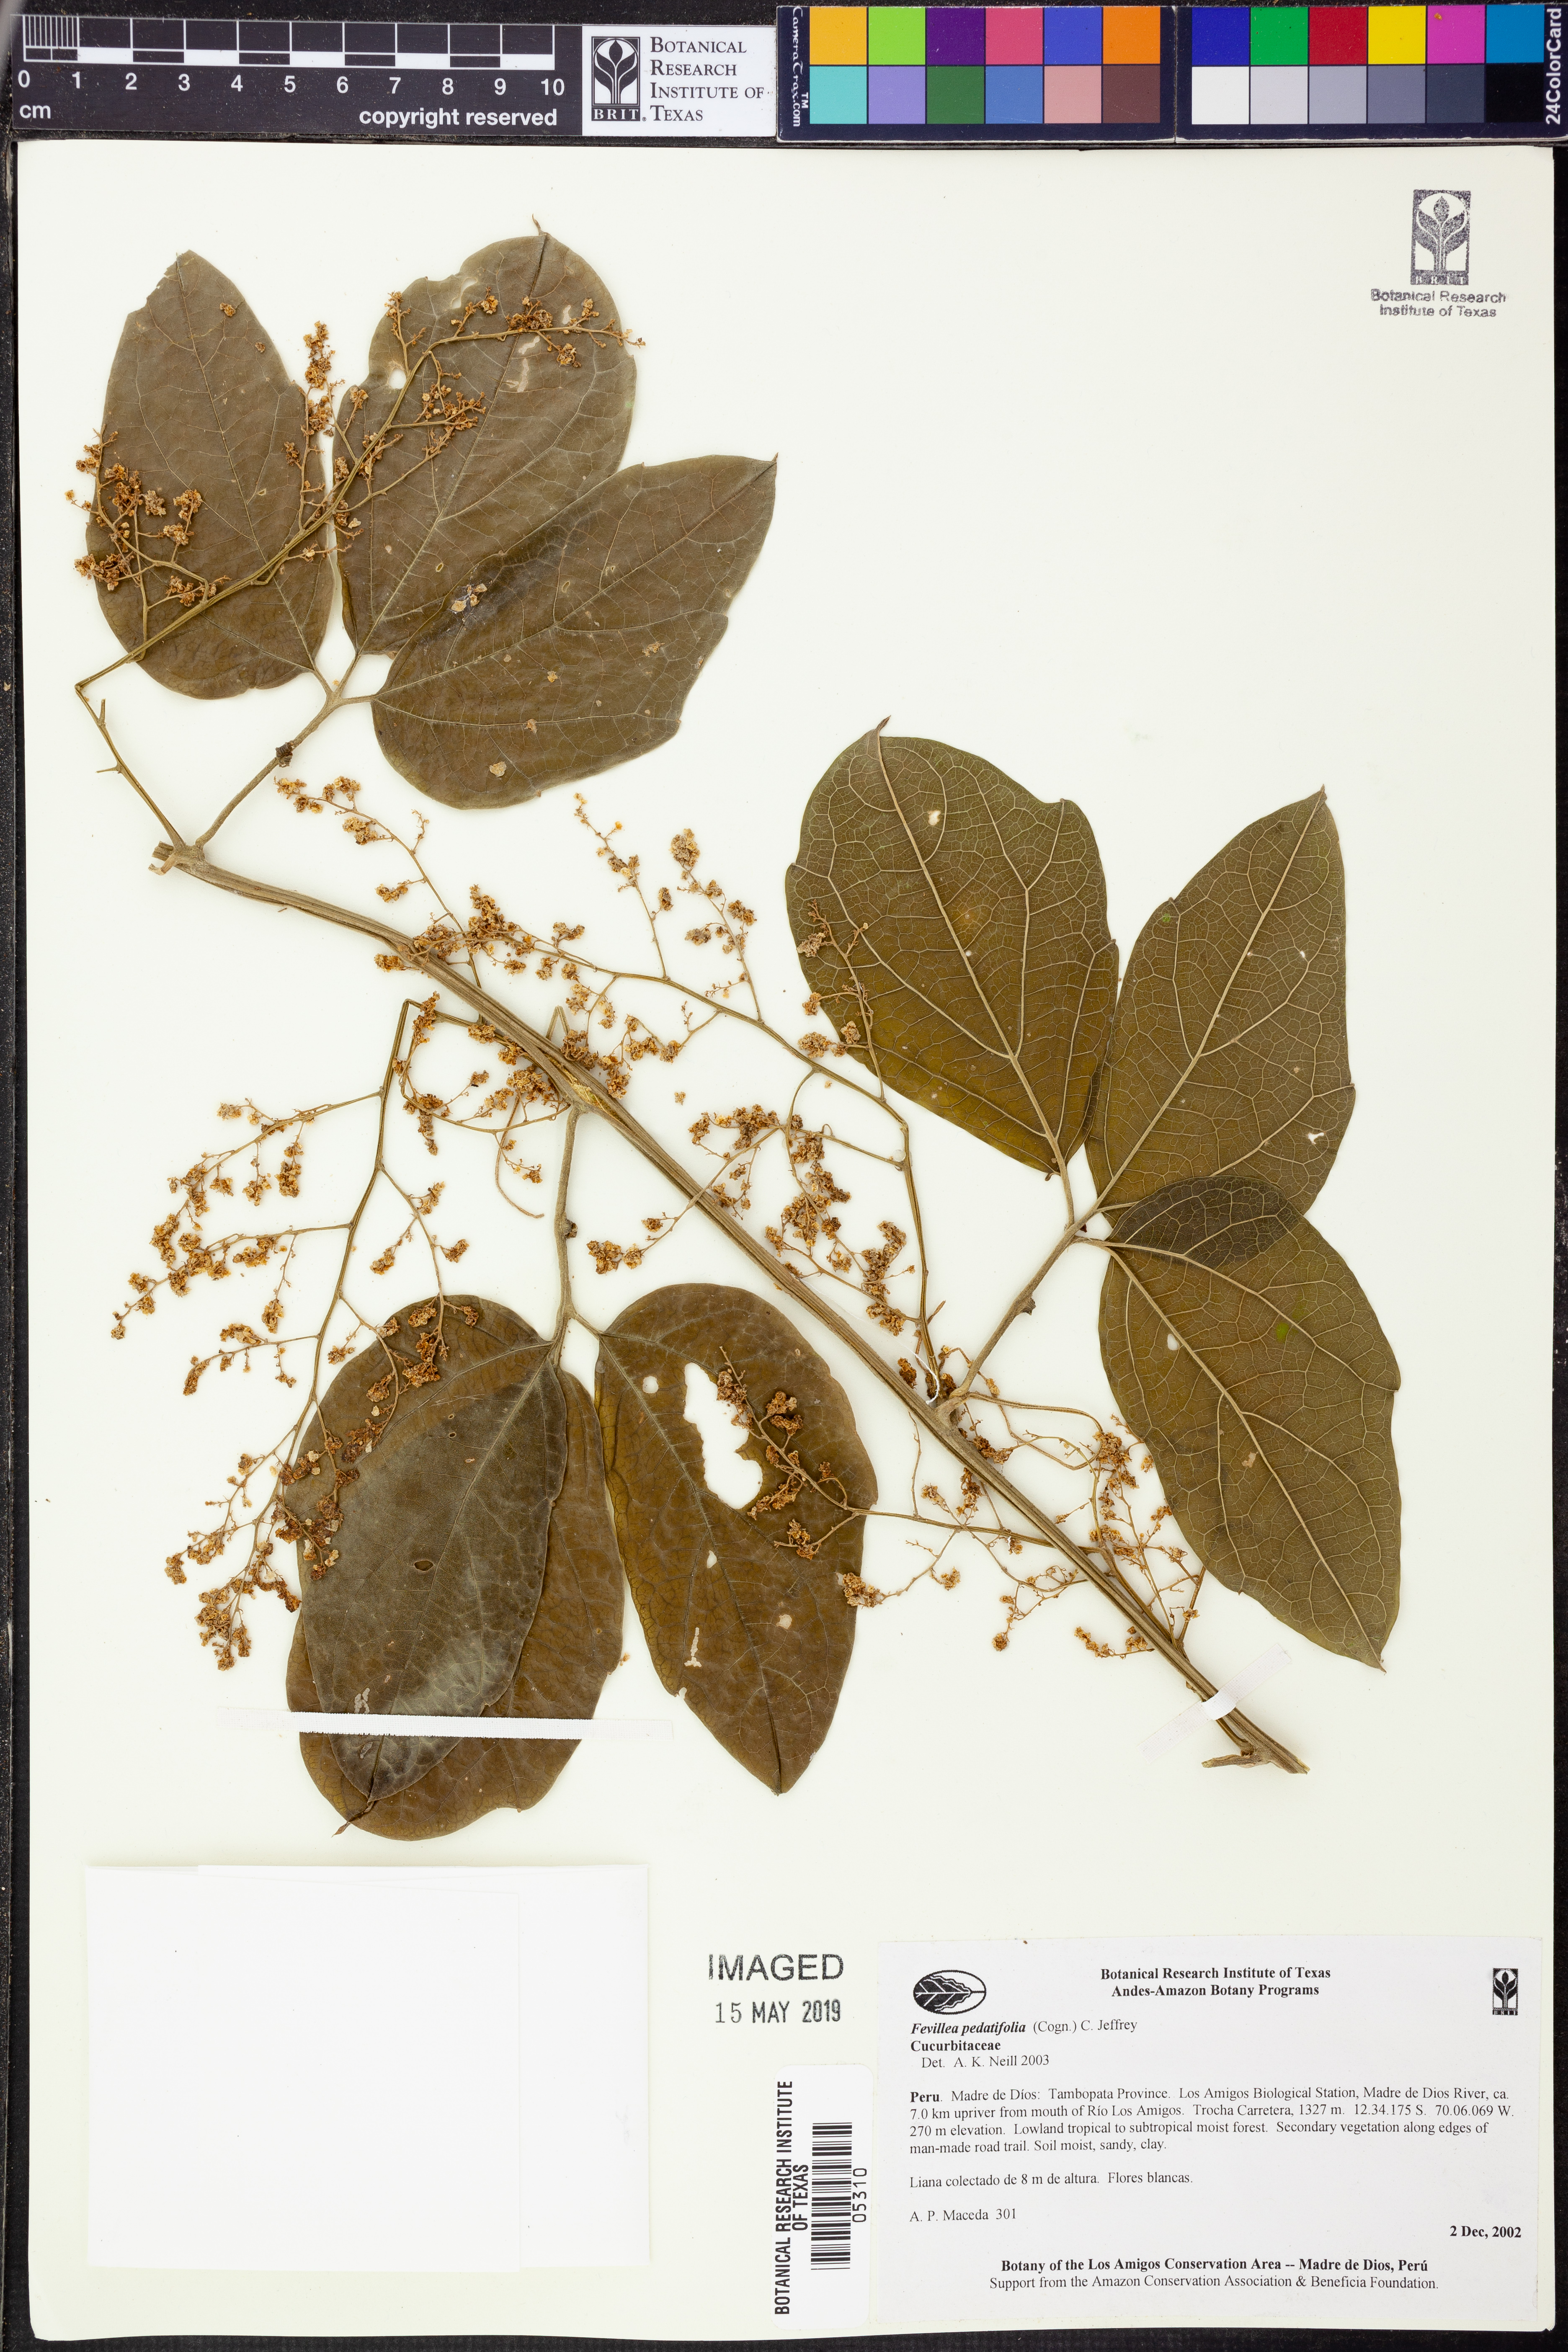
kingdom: Plantae
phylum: Tracheophyta
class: Magnoliopsida
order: Cucurbitales
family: Cucurbitaceae
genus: Fevillea
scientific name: Fevillea
